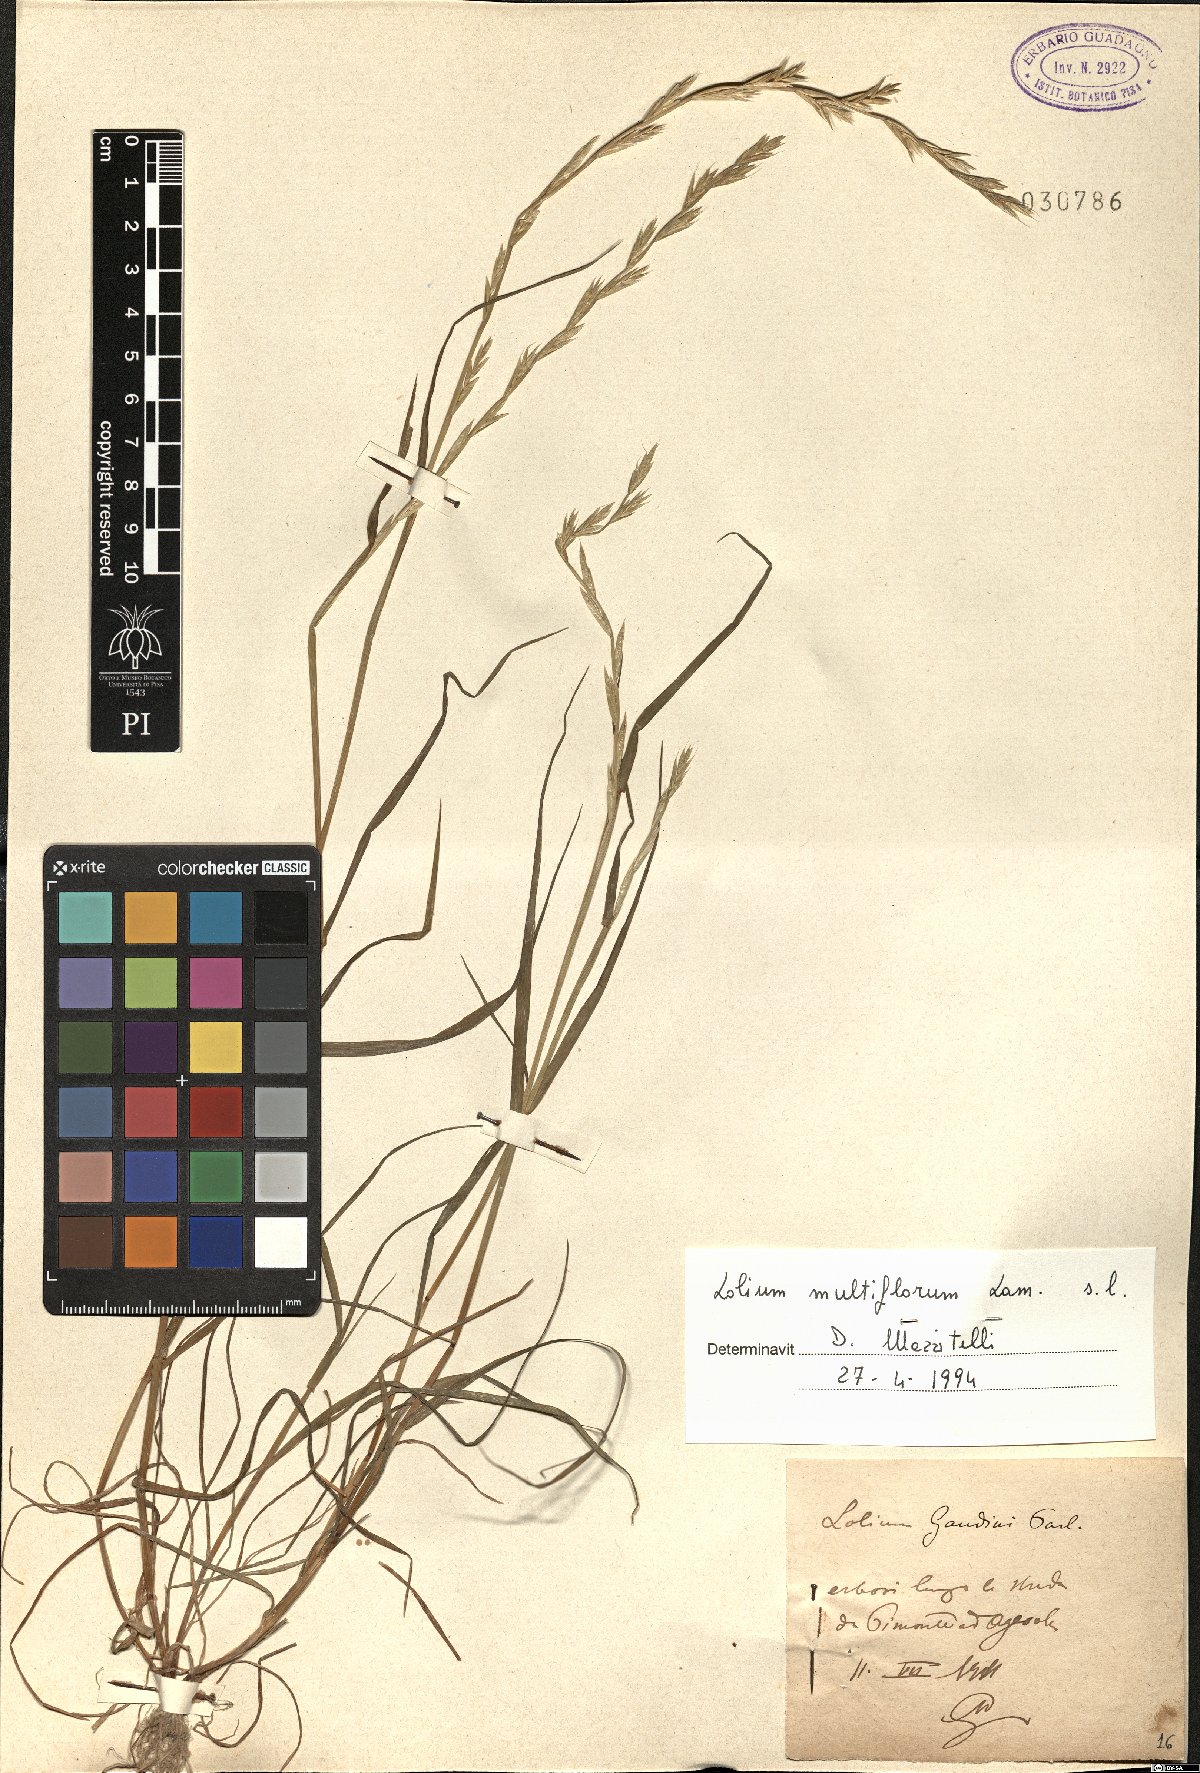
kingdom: Plantae
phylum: Tracheophyta
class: Liliopsida
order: Poales
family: Poaceae
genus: Lolium
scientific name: Lolium multiflorum
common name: Annual ryegrass
